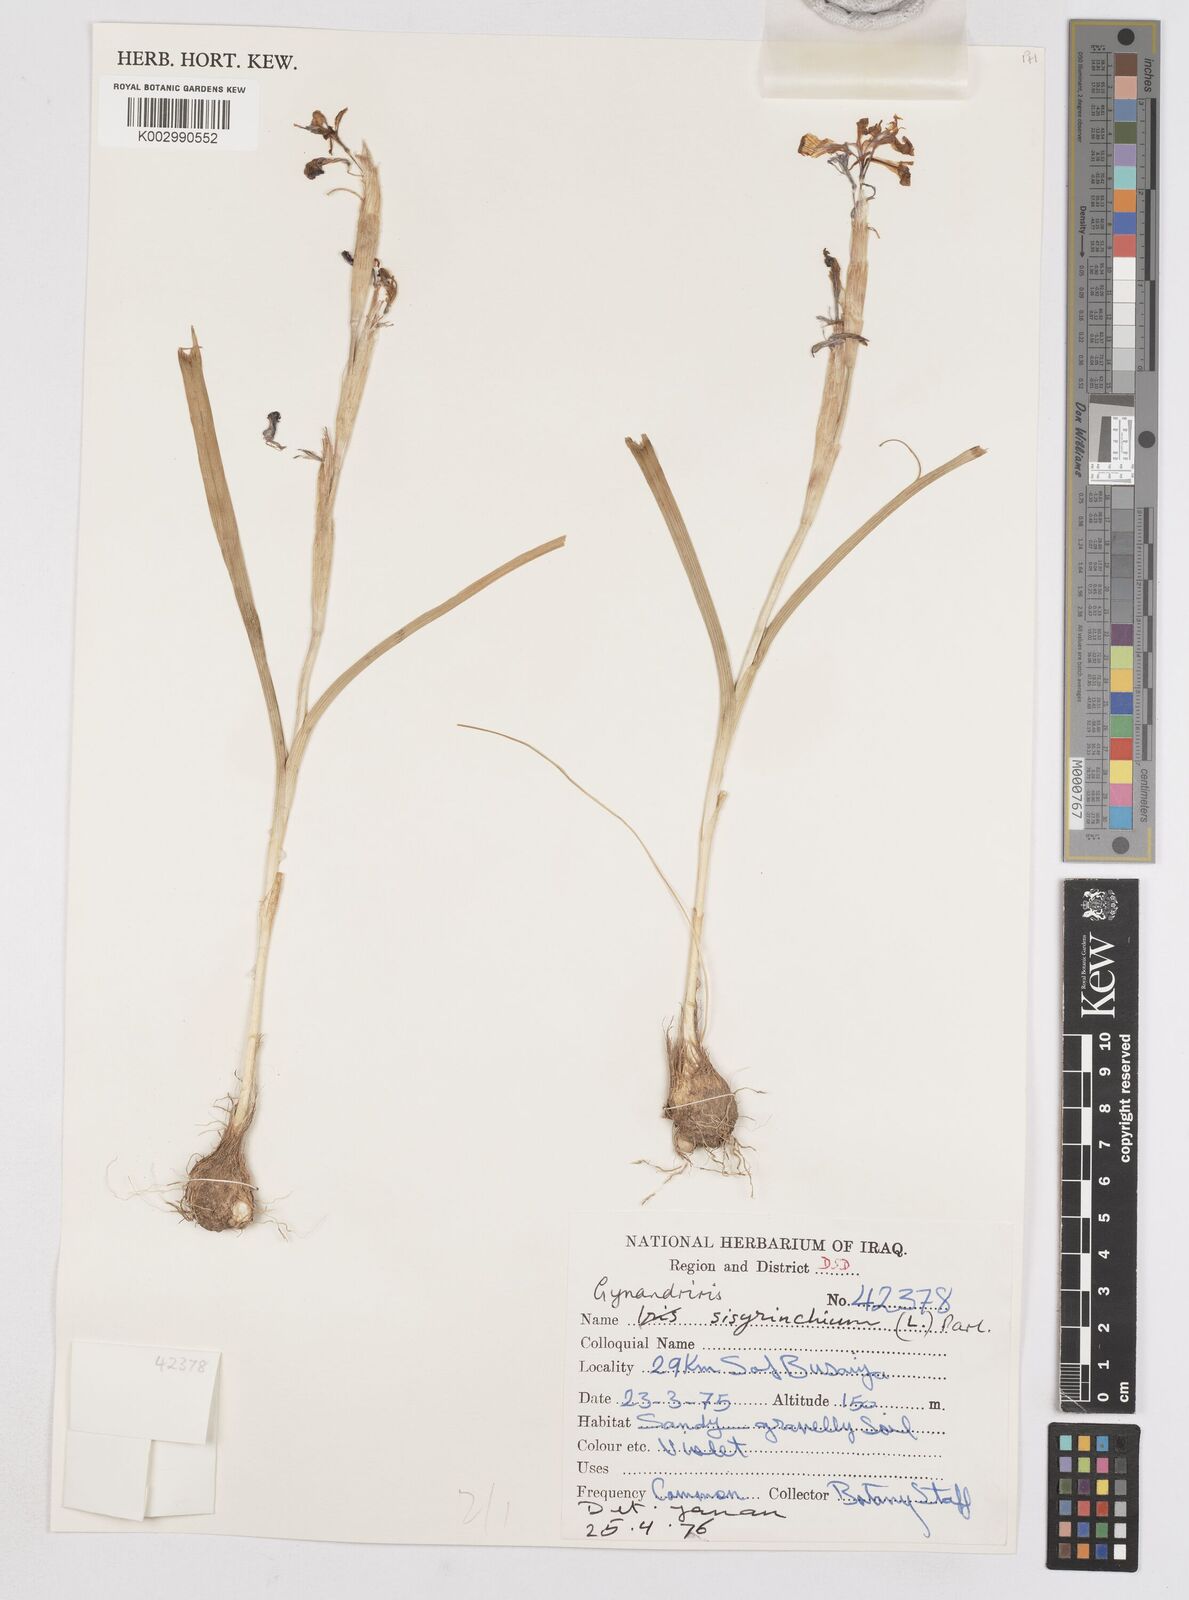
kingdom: Plantae
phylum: Tracheophyta
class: Liliopsida
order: Asparagales
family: Iridaceae
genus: Moraea
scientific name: Moraea sisyrinchium
